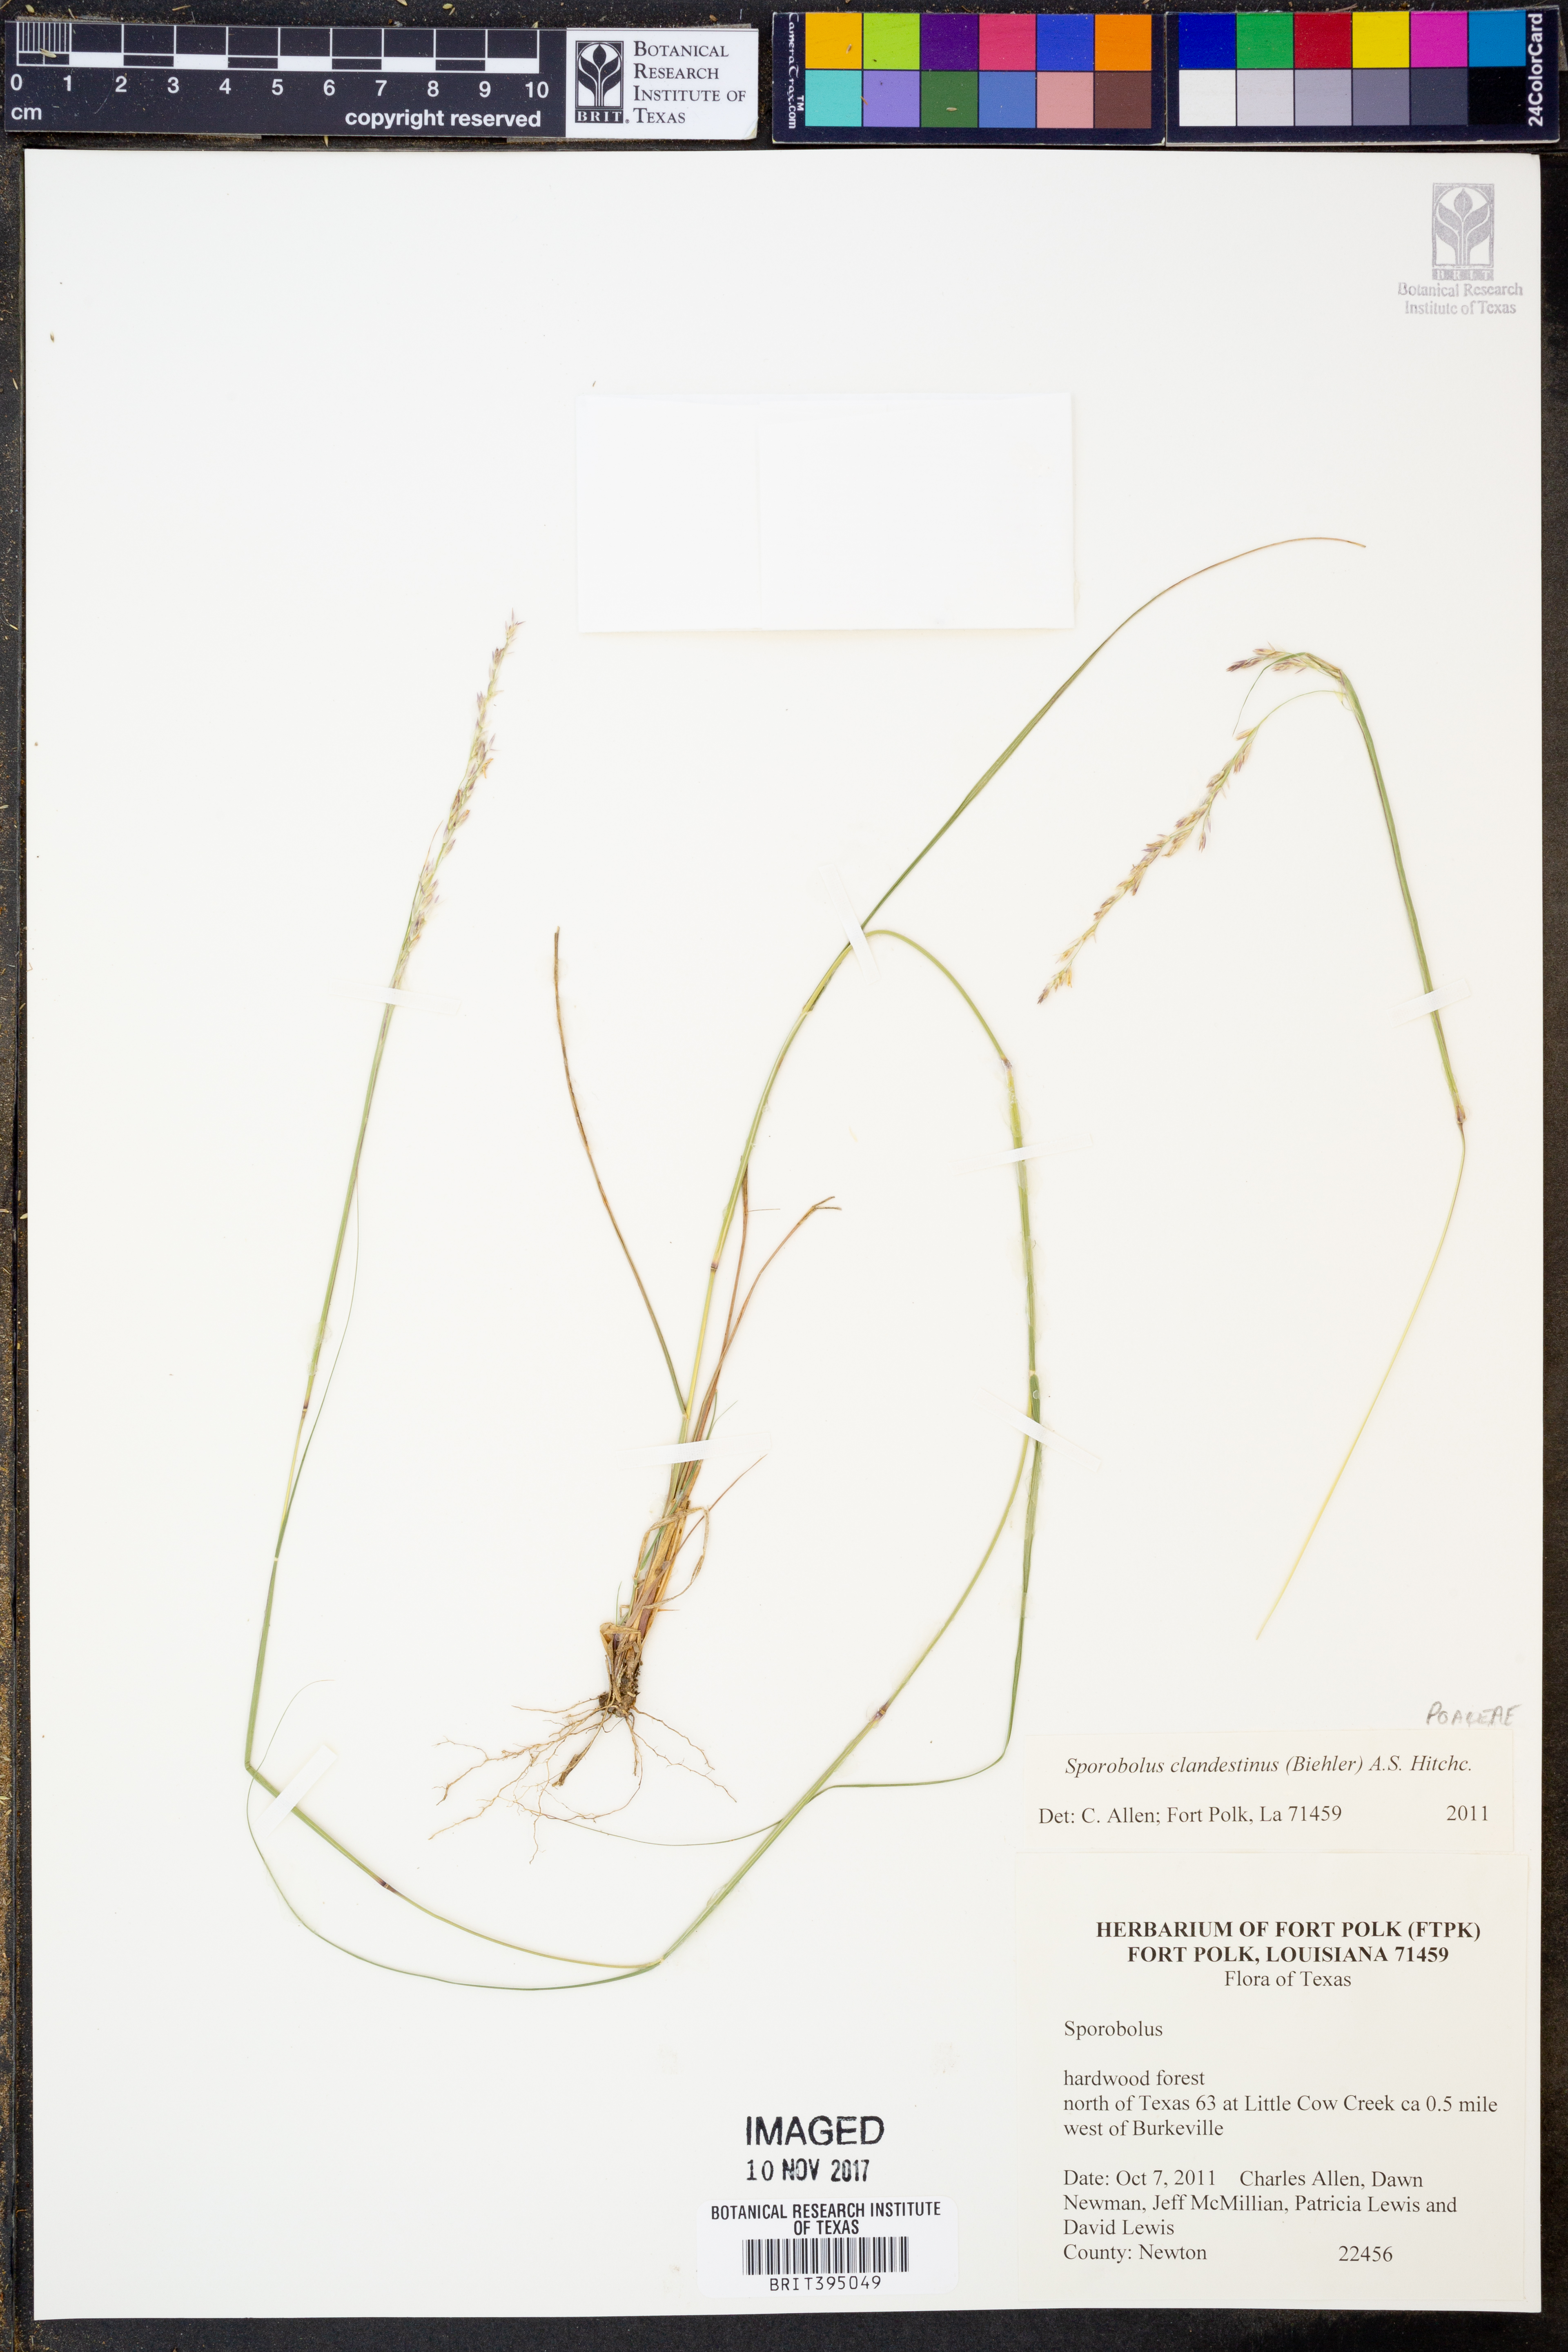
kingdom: Plantae
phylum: Tracheophyta
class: Liliopsida
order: Poales
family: Poaceae
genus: Sporobolus
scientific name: Sporobolus clandestinus
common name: Hidden dropseed
